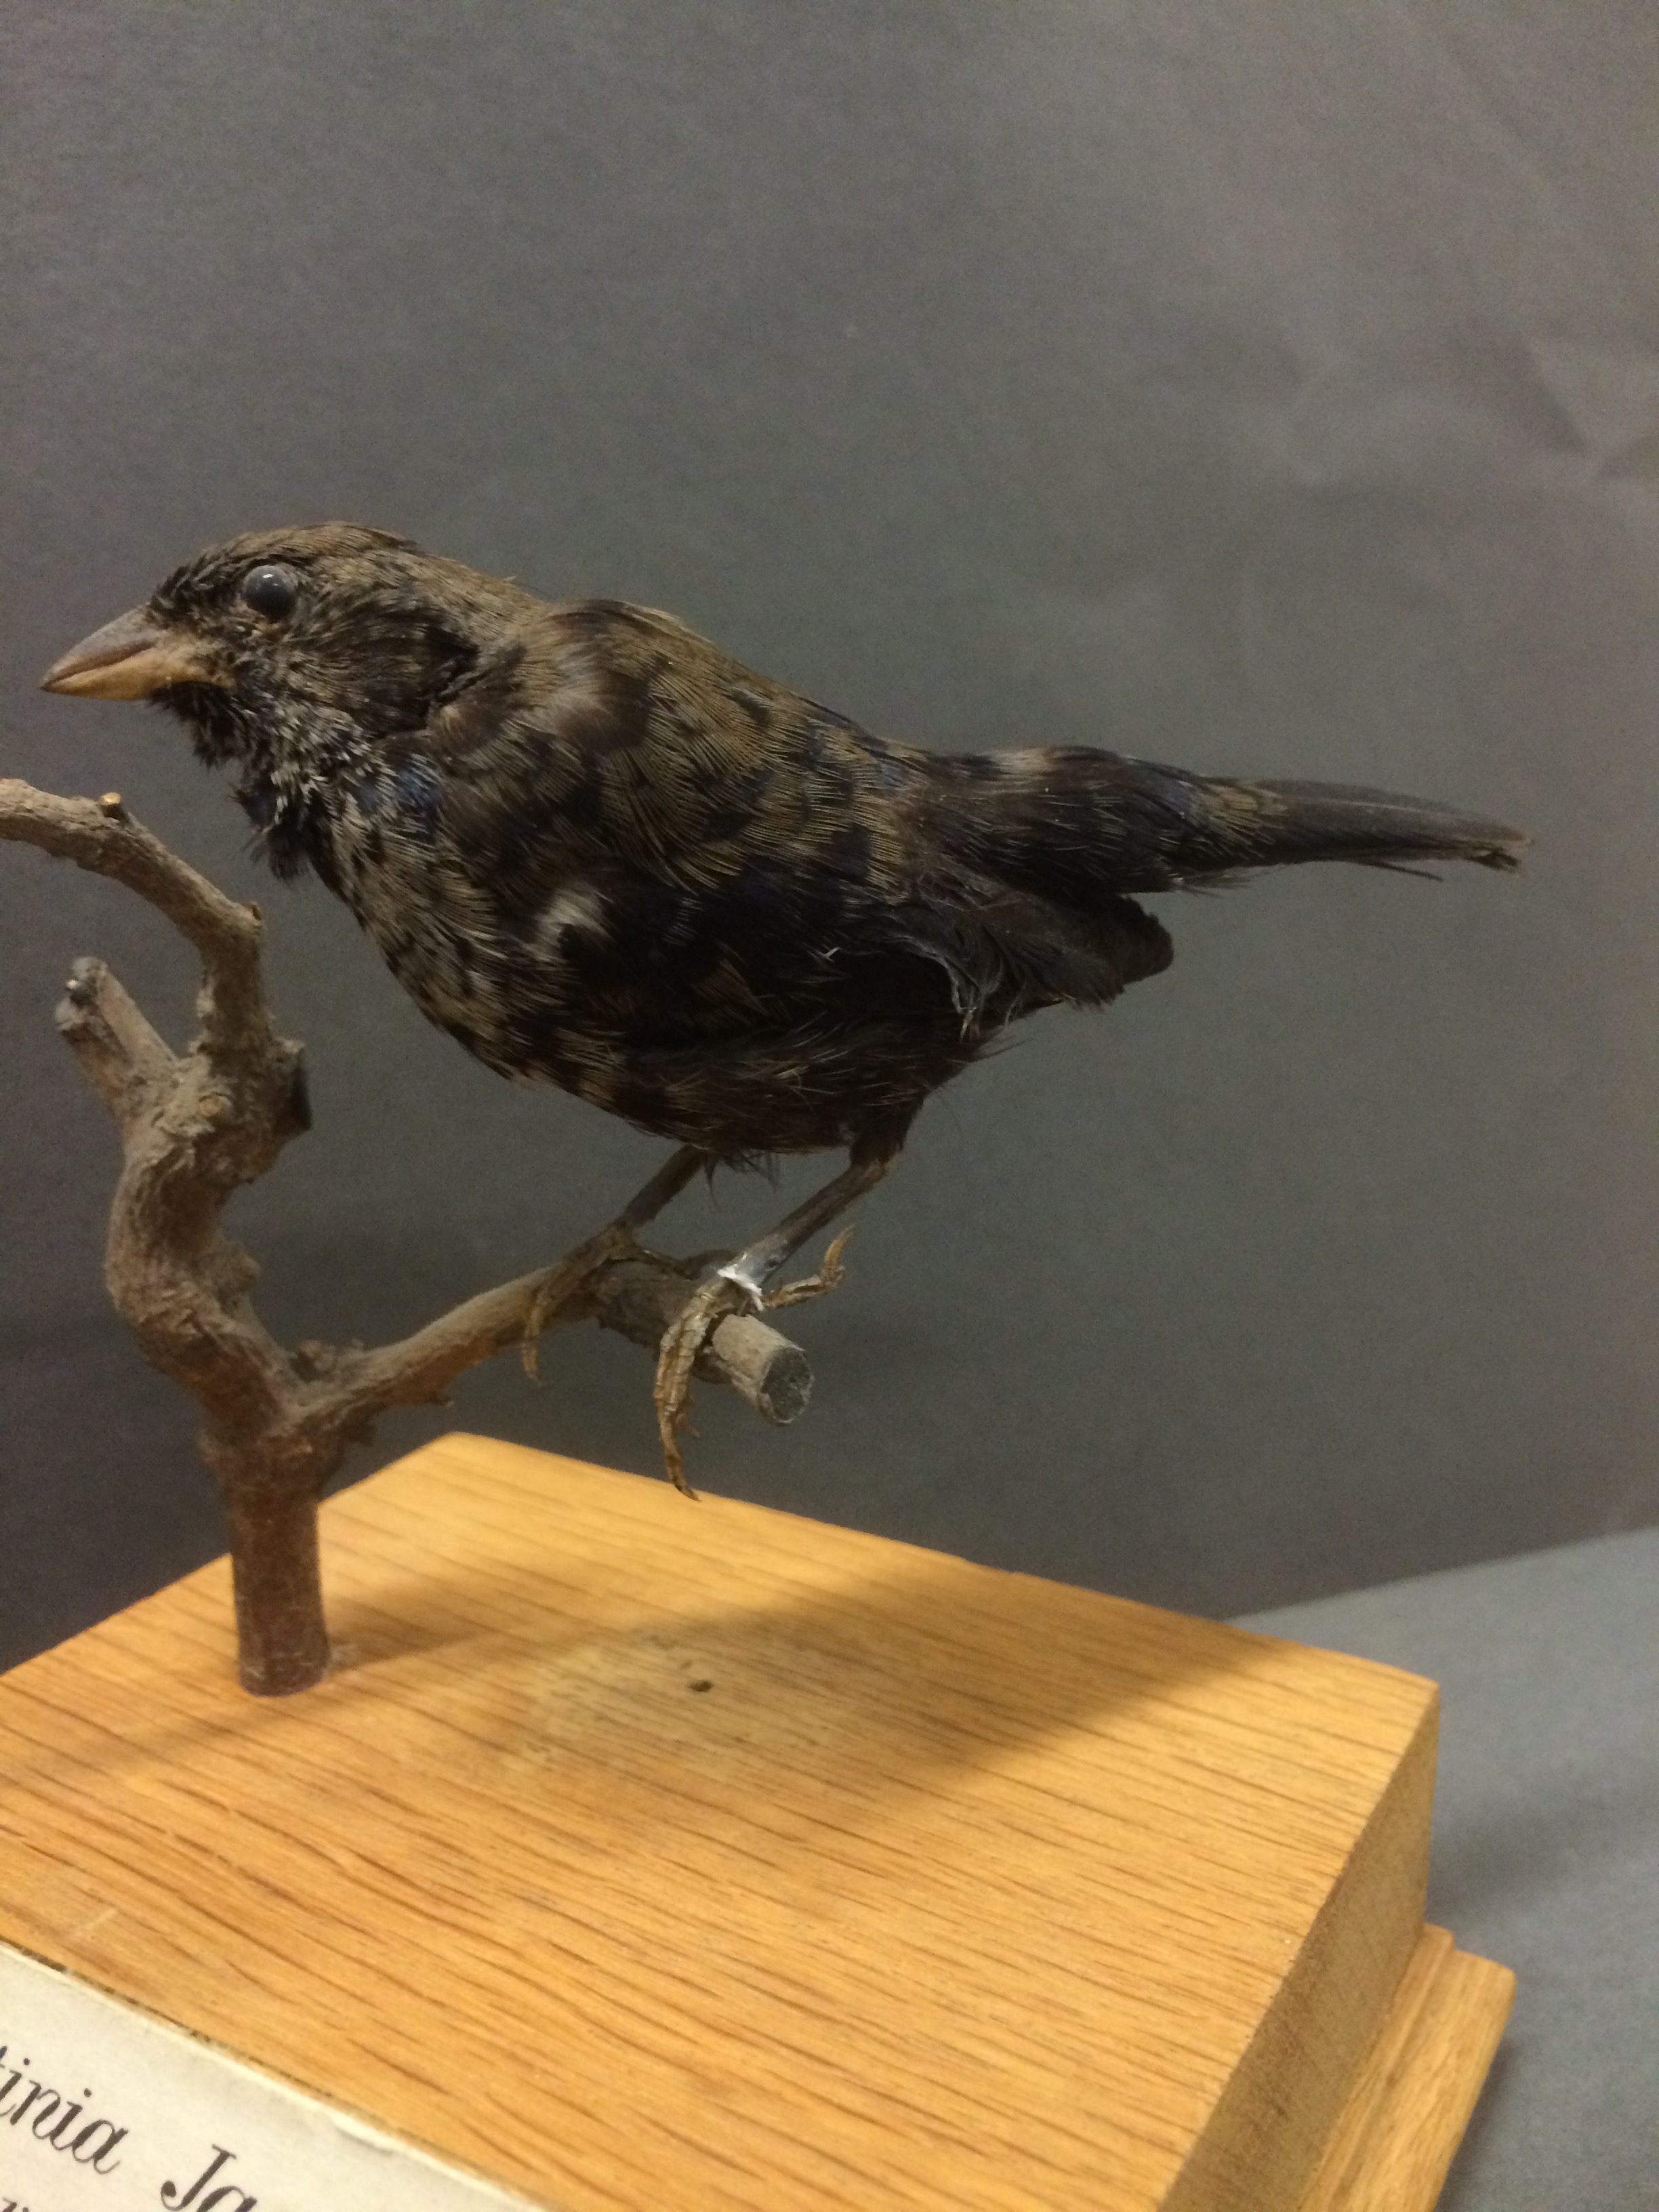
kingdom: Animalia
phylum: Chordata
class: Aves
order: Passeriformes
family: Thraupidae
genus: Volatinia
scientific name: Volatinia jacarina
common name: Blue-black grassquit
